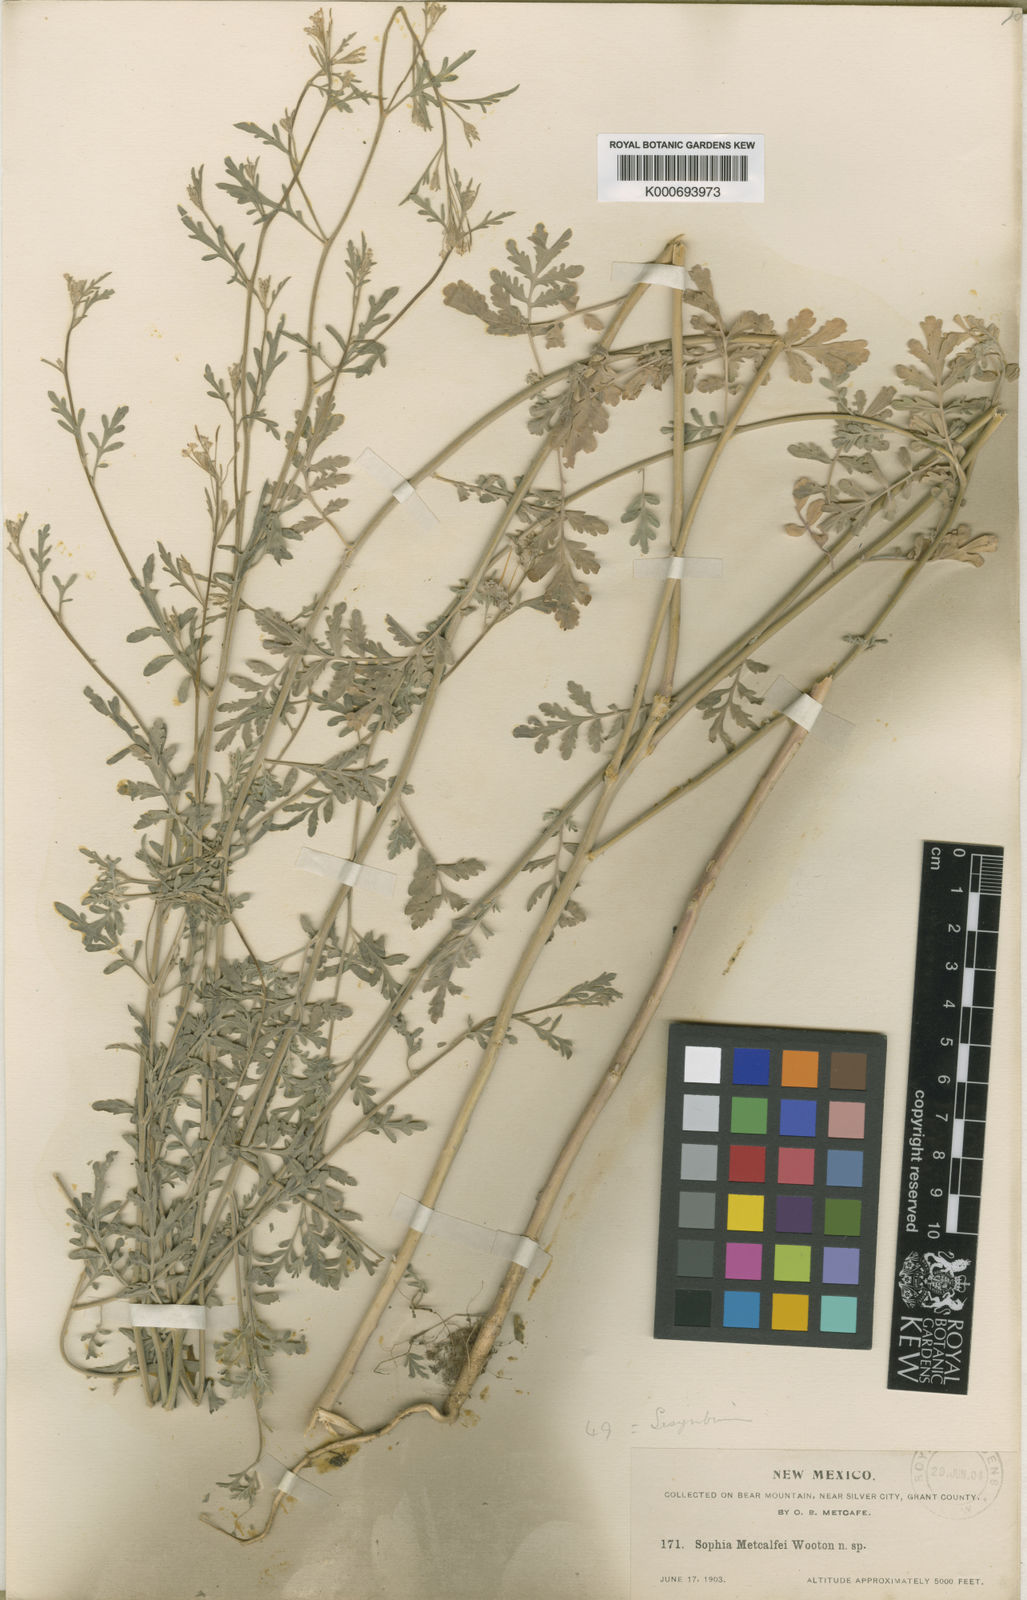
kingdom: Plantae
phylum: Tracheophyta
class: Magnoliopsida
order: Brassicales
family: Brassicaceae
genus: Sisymbrium
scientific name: Sisymbrium
